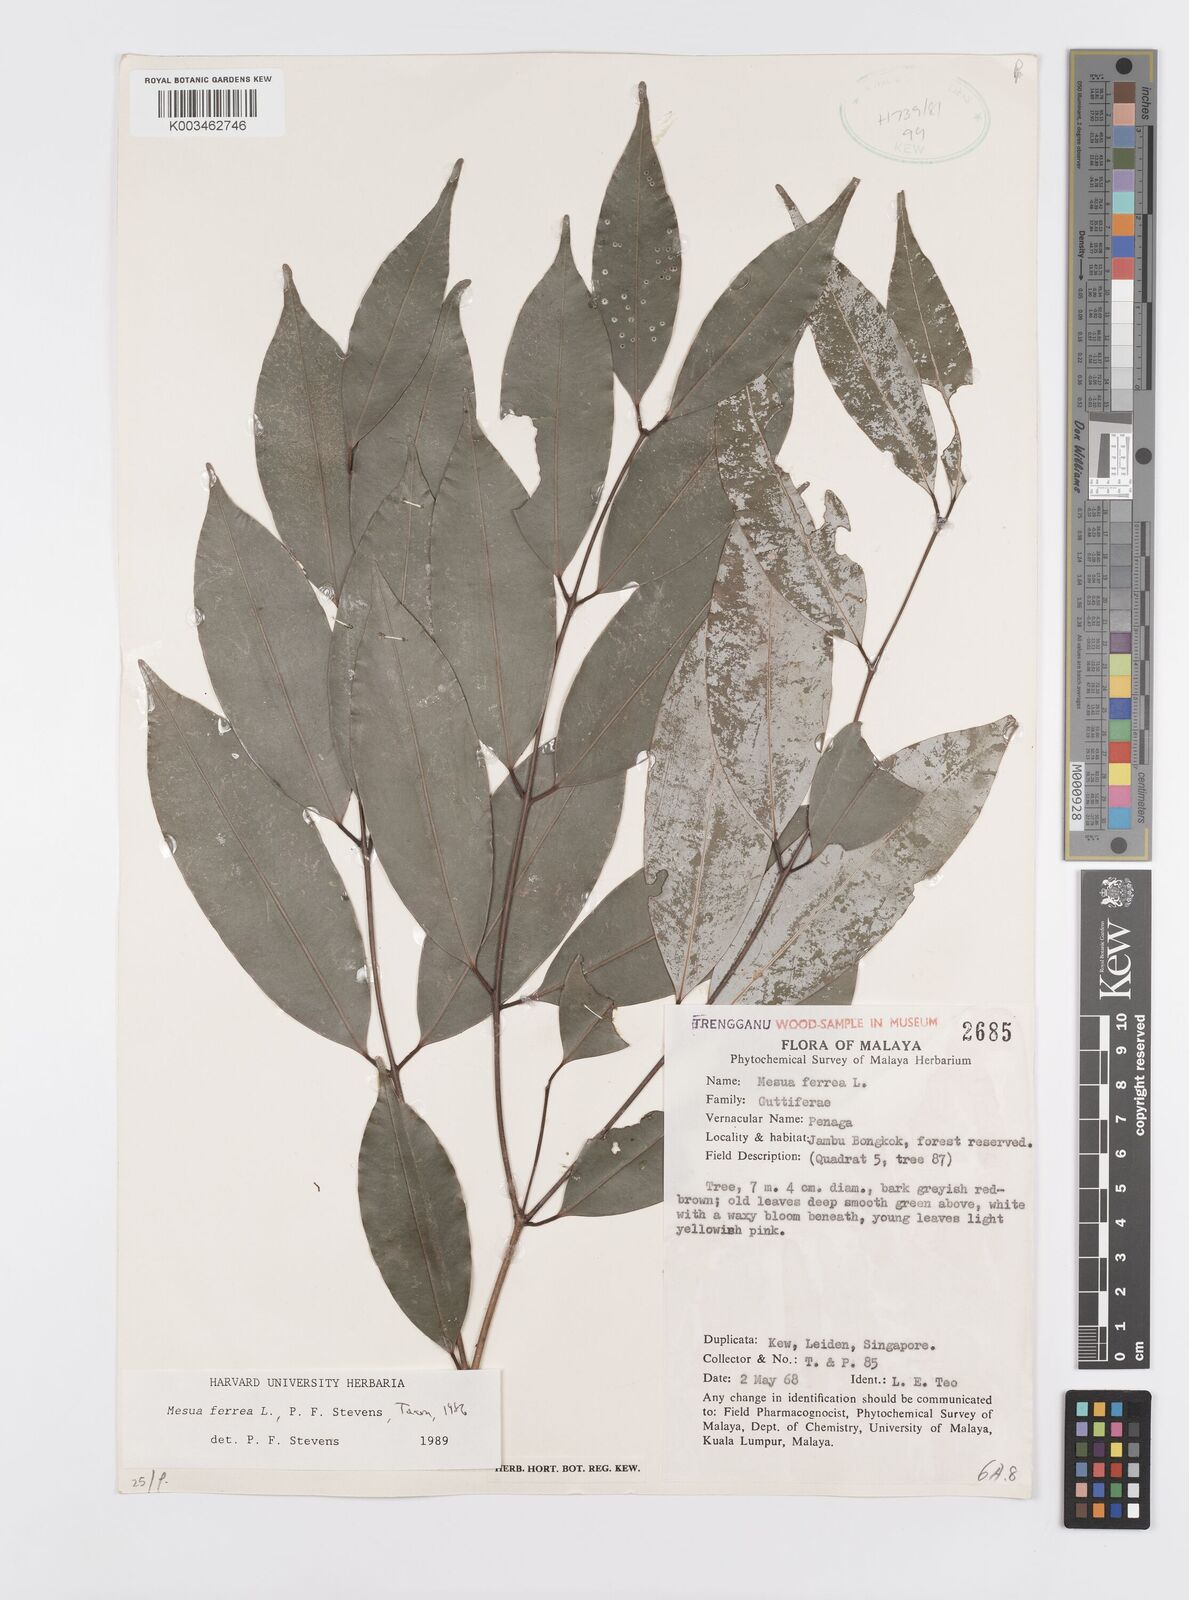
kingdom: Plantae
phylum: Tracheophyta
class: Magnoliopsida
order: Malpighiales
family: Calophyllaceae
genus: Mesua
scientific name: Mesua ferrea
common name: Mesua
